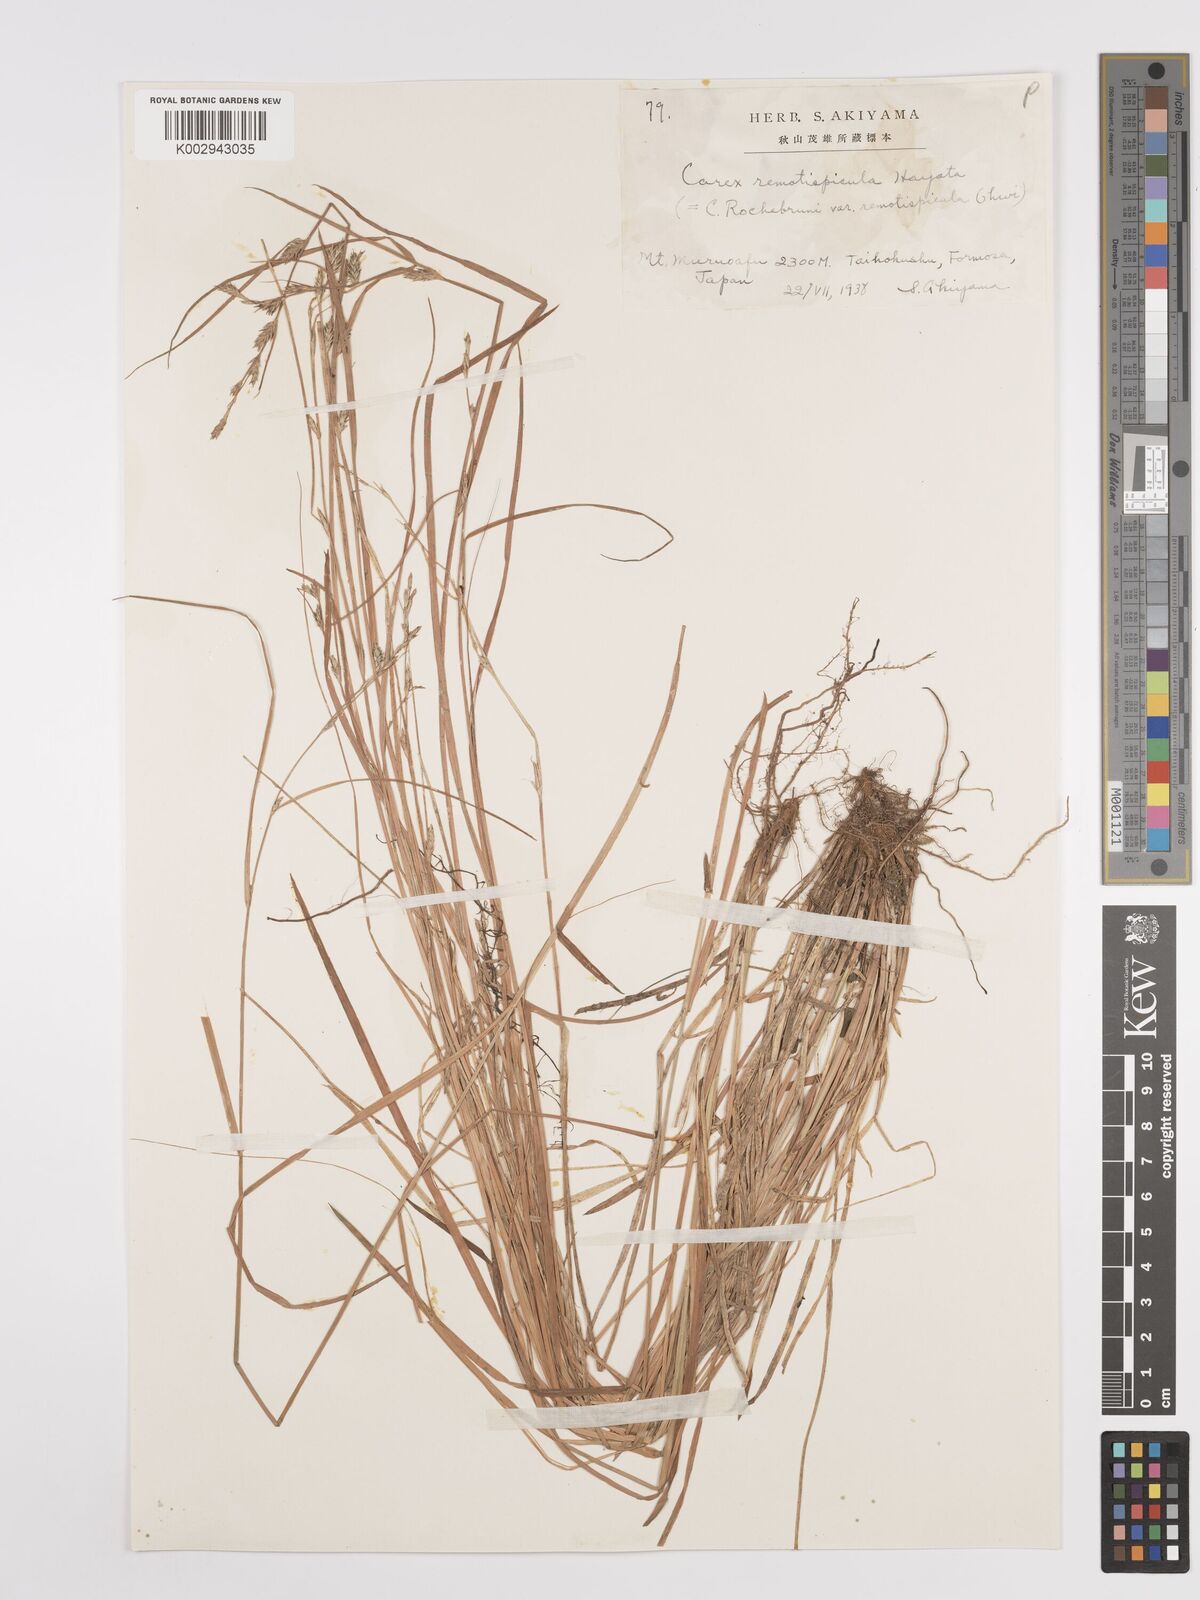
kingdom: Plantae
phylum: Tracheophyta
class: Liliopsida
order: Poales
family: Cyperaceae
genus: Carex
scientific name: Carex rochebrunei
